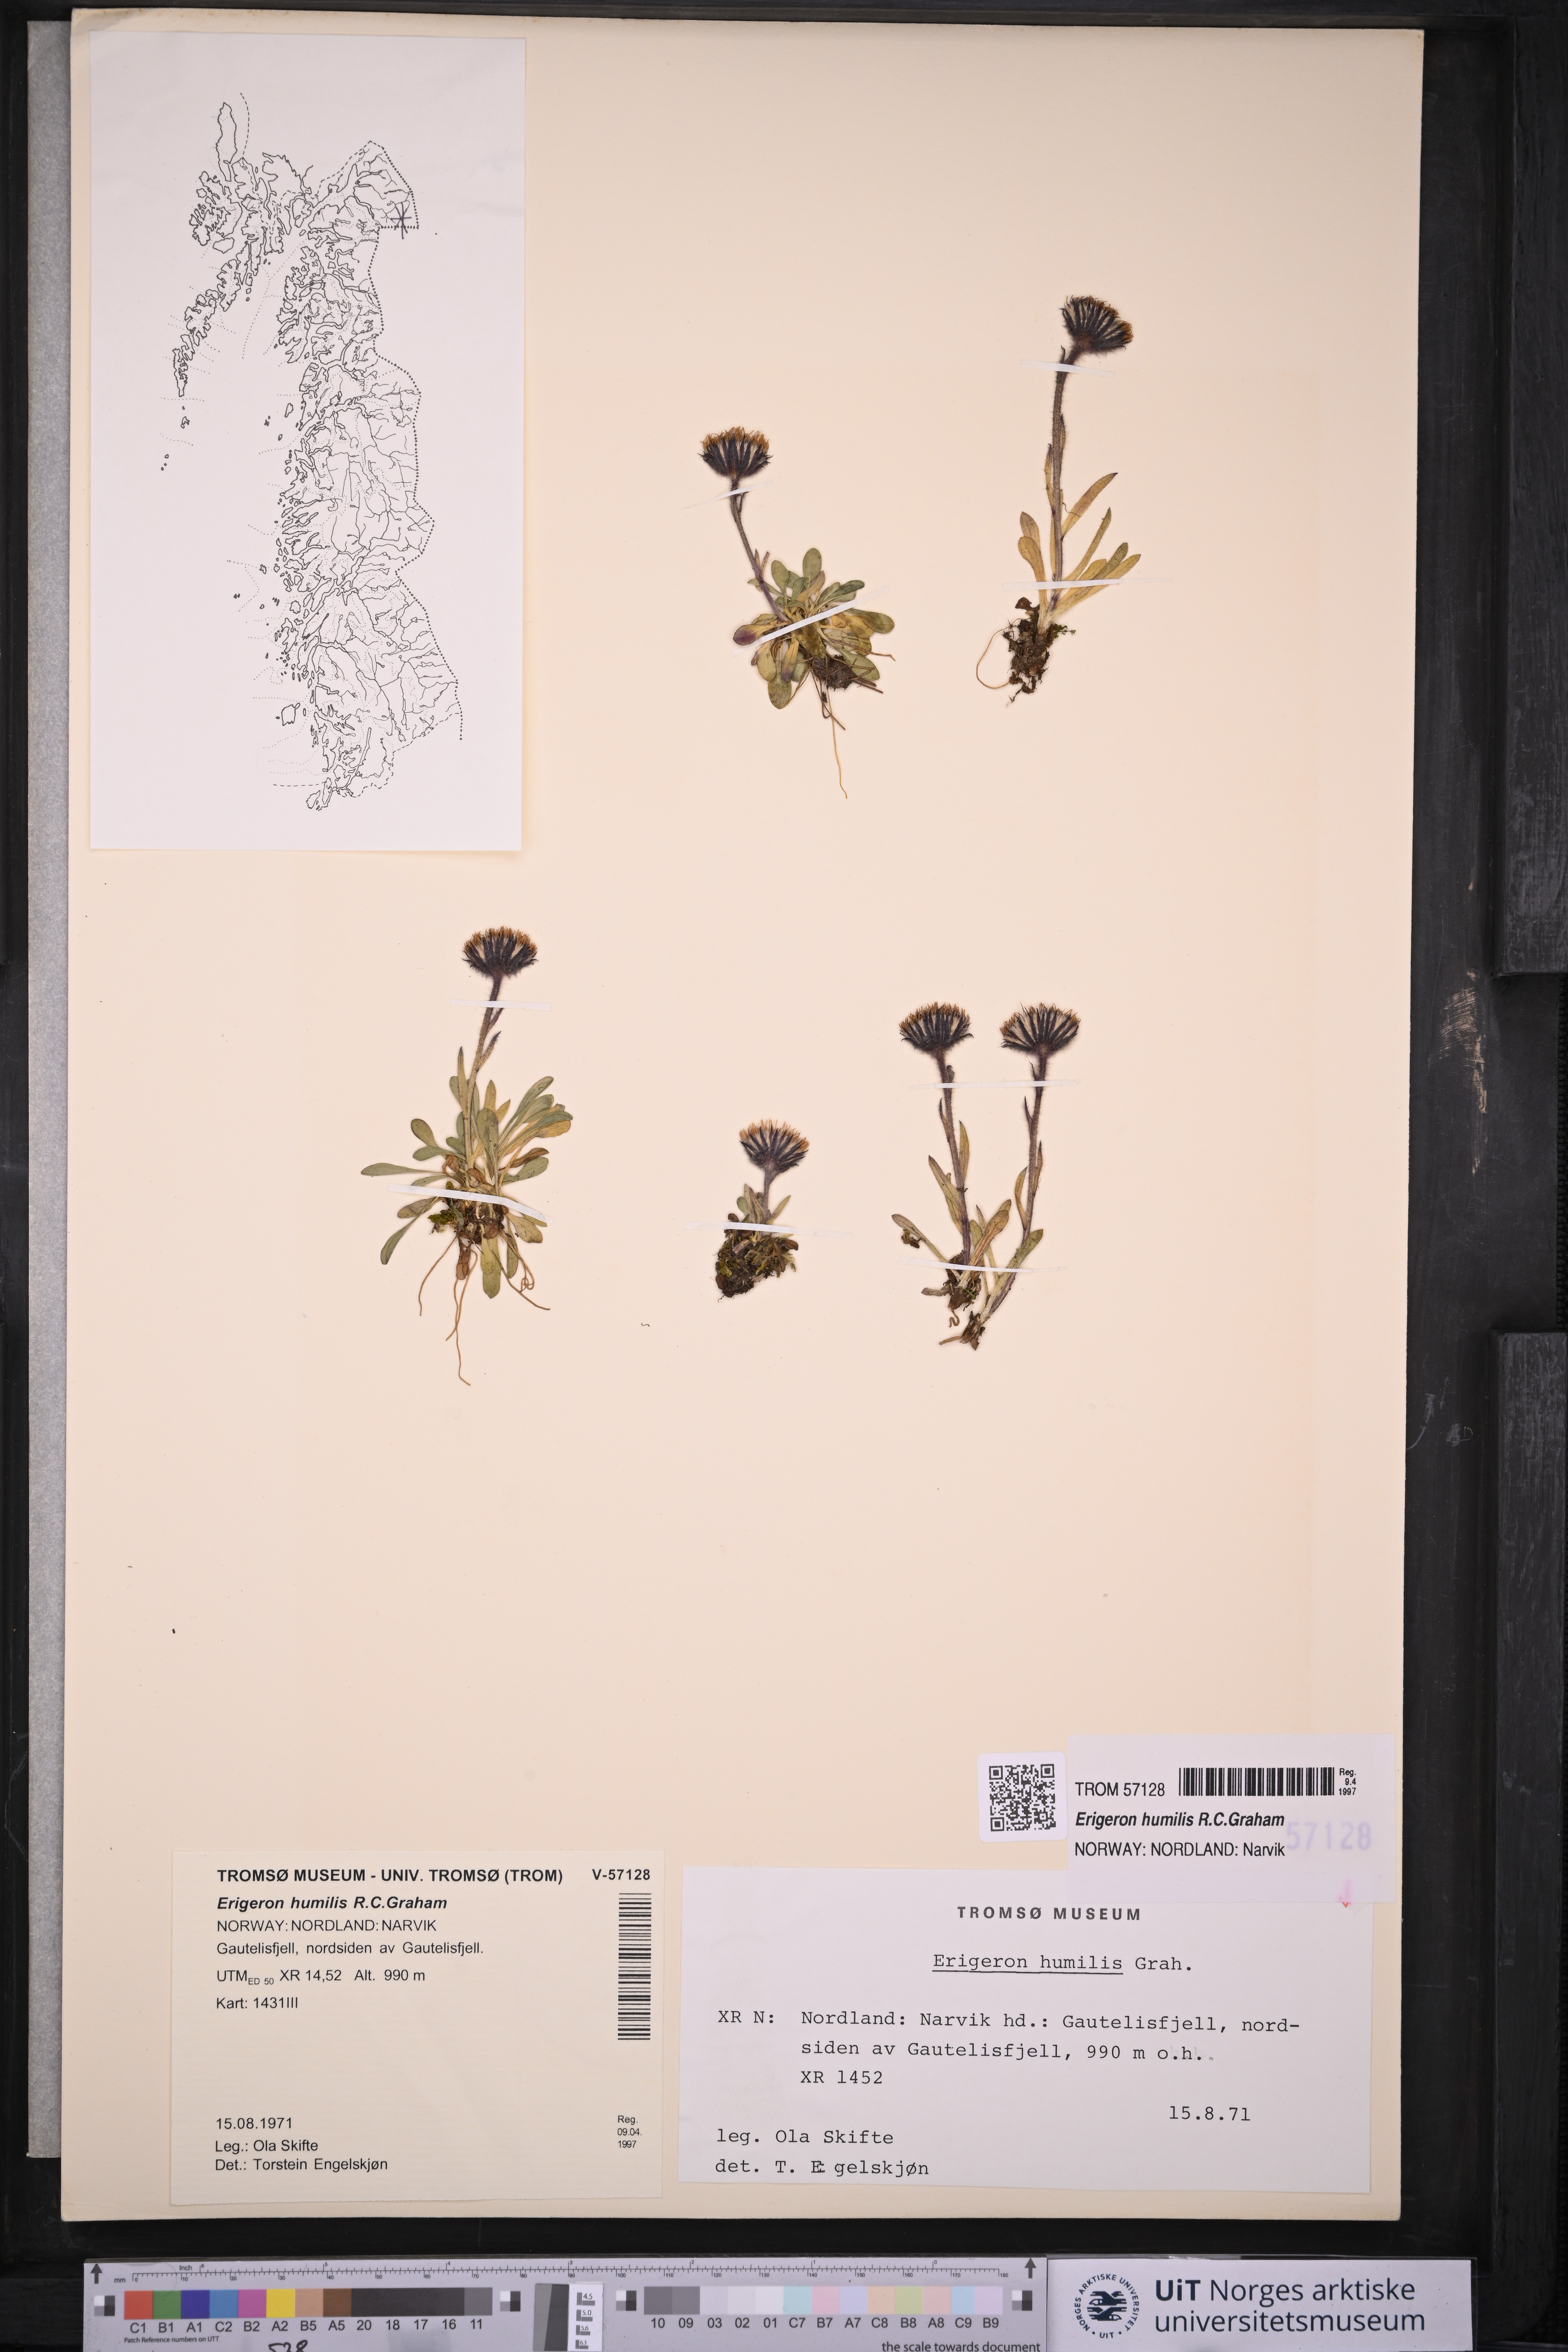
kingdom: Plantae
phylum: Tracheophyta
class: Magnoliopsida
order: Asterales
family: Asteraceae
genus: Erigeron
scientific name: Erigeron humilis
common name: Arctic-alpine fleabane
